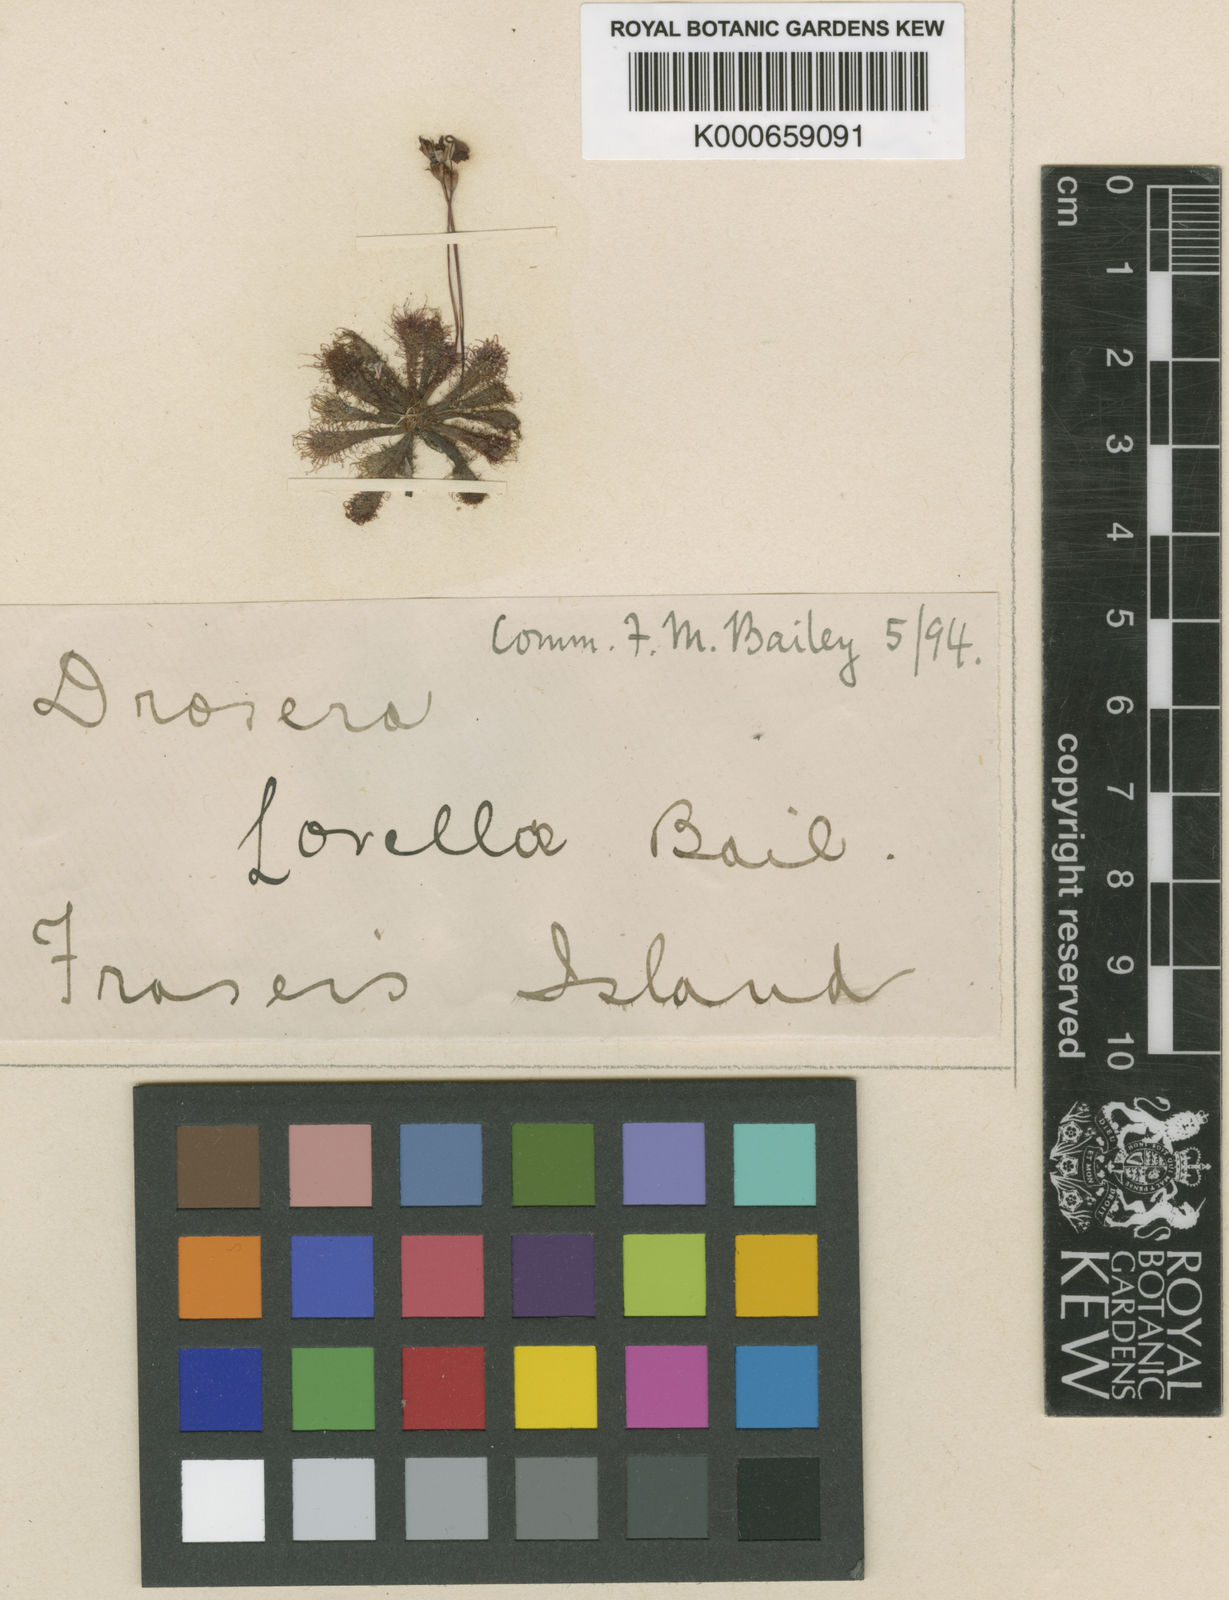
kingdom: Plantae
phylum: Tracheophyta
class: Magnoliopsida
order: Caryophyllales
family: Droseraceae
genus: Drosera
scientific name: Drosera
